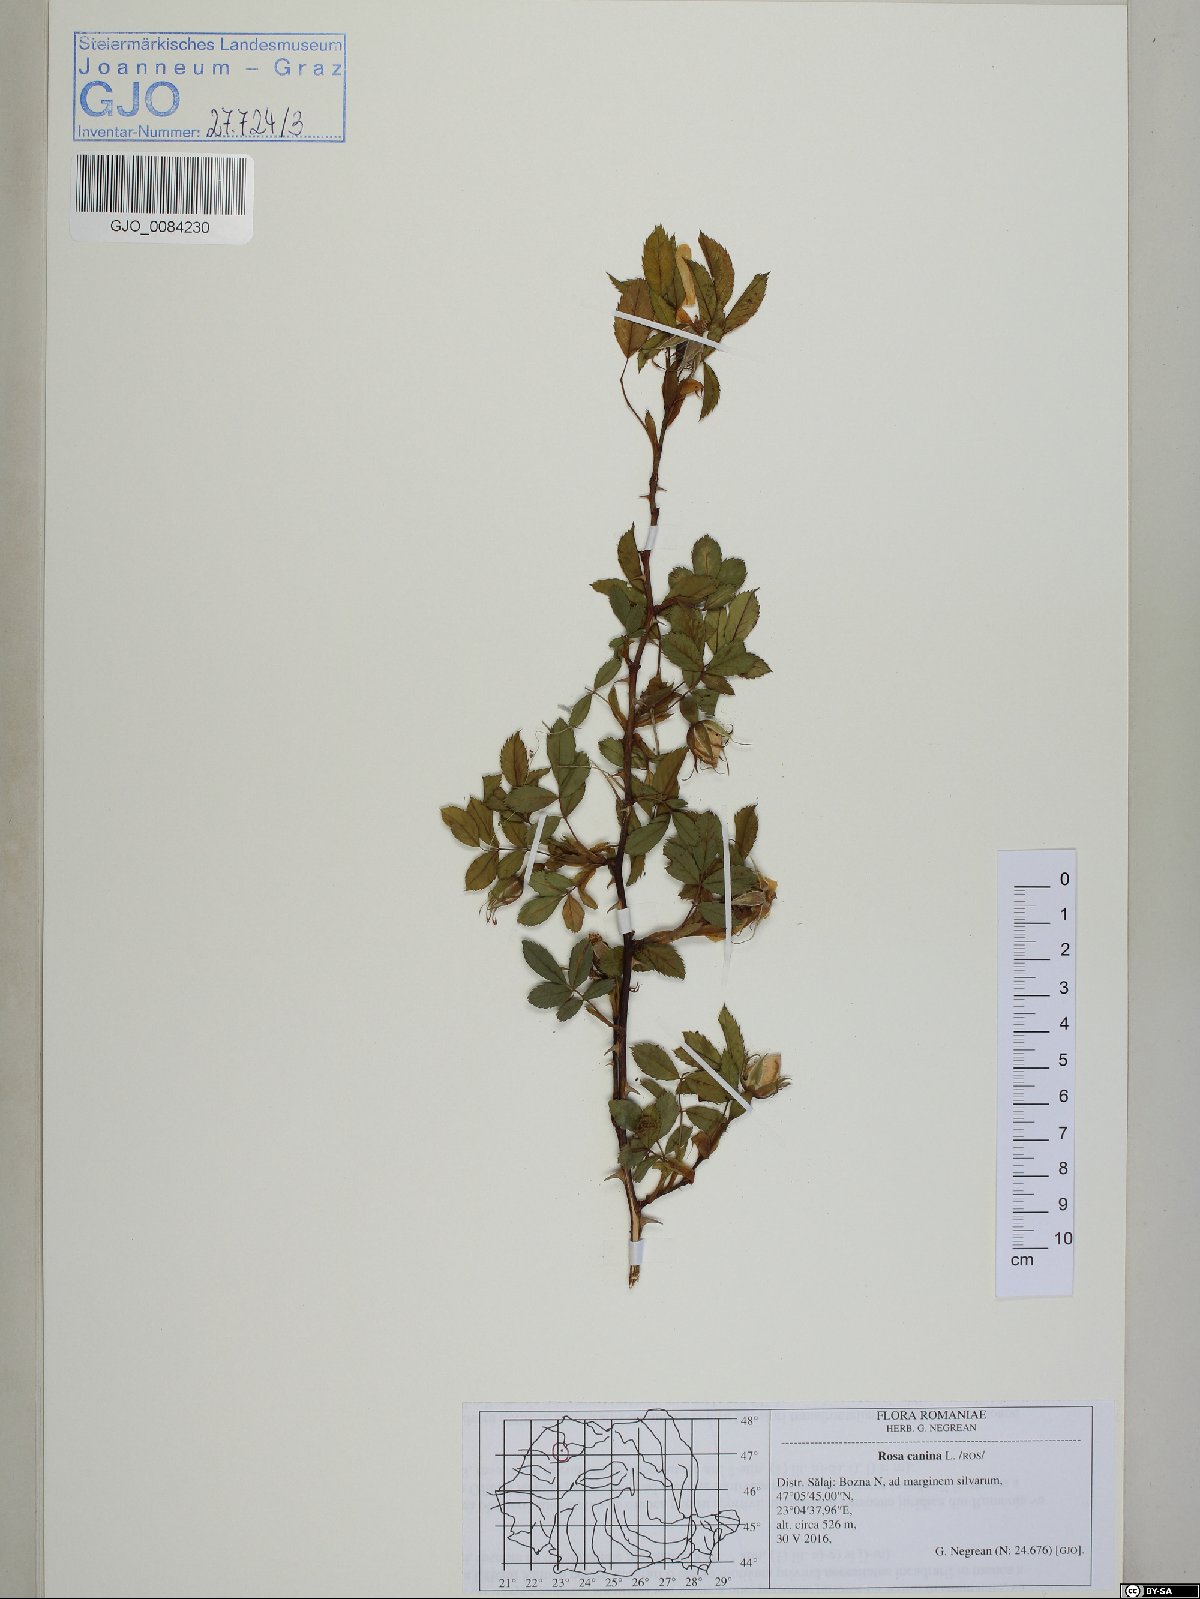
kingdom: Plantae
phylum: Tracheophyta
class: Magnoliopsida
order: Rosales
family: Rosaceae
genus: Rosa
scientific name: Rosa canina
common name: Dog rose
